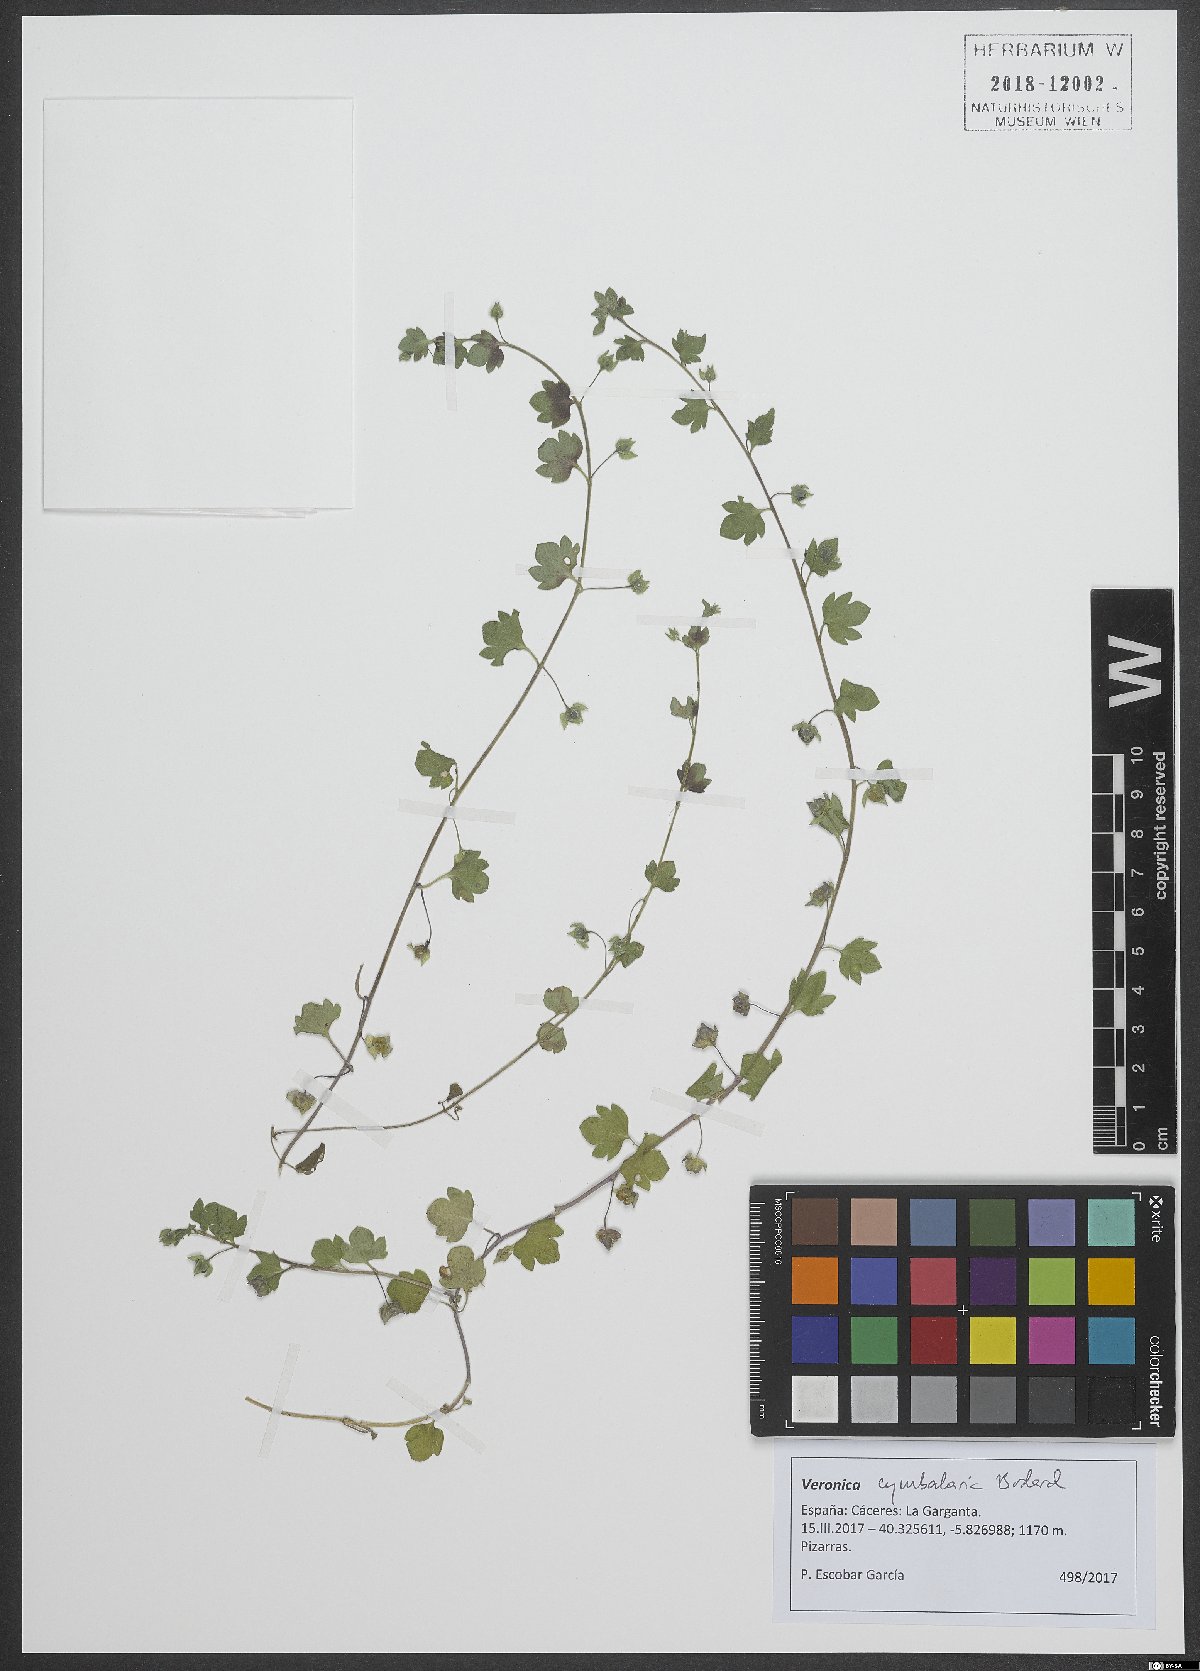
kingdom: Plantae
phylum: Tracheophyta
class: Magnoliopsida
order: Lamiales
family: Plantaginaceae
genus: Veronica
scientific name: Veronica cymbalaria
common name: Pale speedwell
